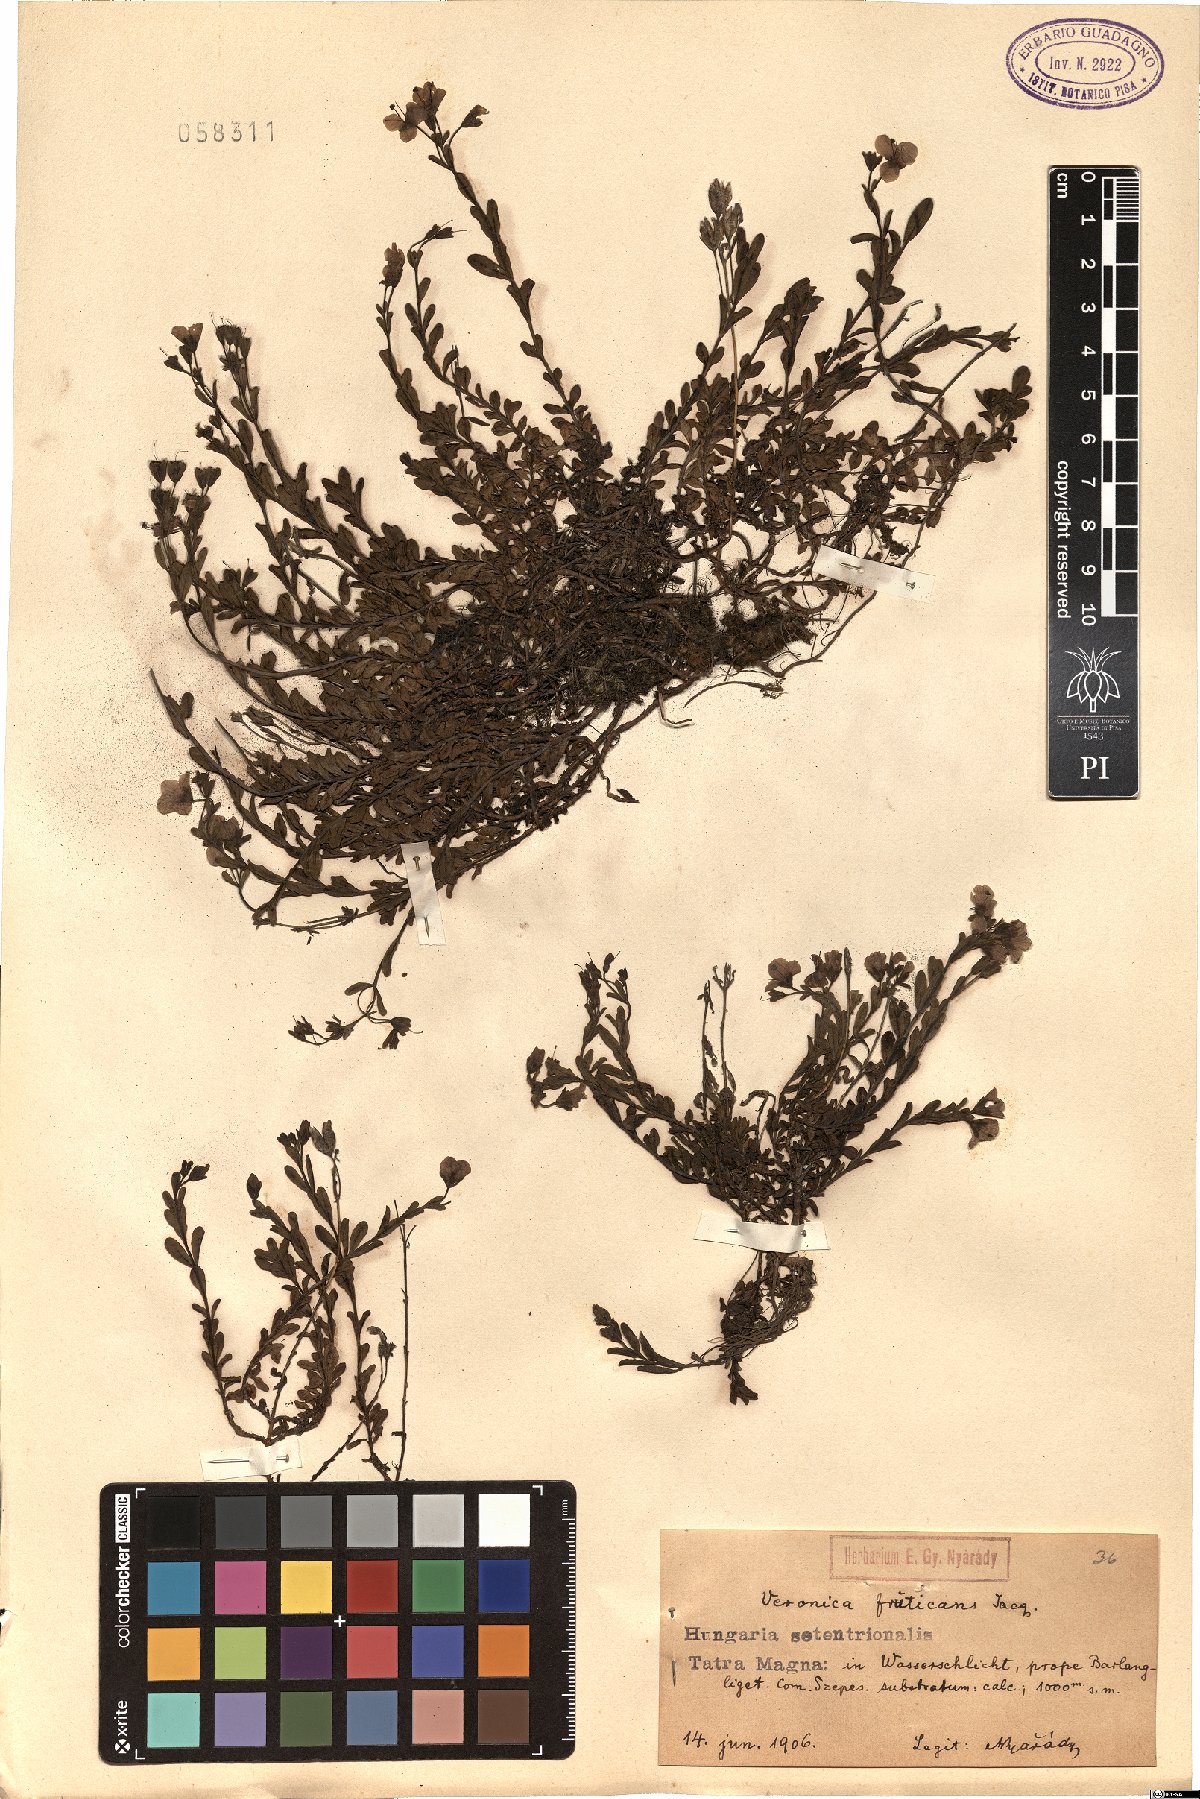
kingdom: Plantae
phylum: Tracheophyta
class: Magnoliopsida
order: Lamiales
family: Plantaginaceae
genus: Veronica
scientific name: Veronica fruticans
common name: Rock speedwell
